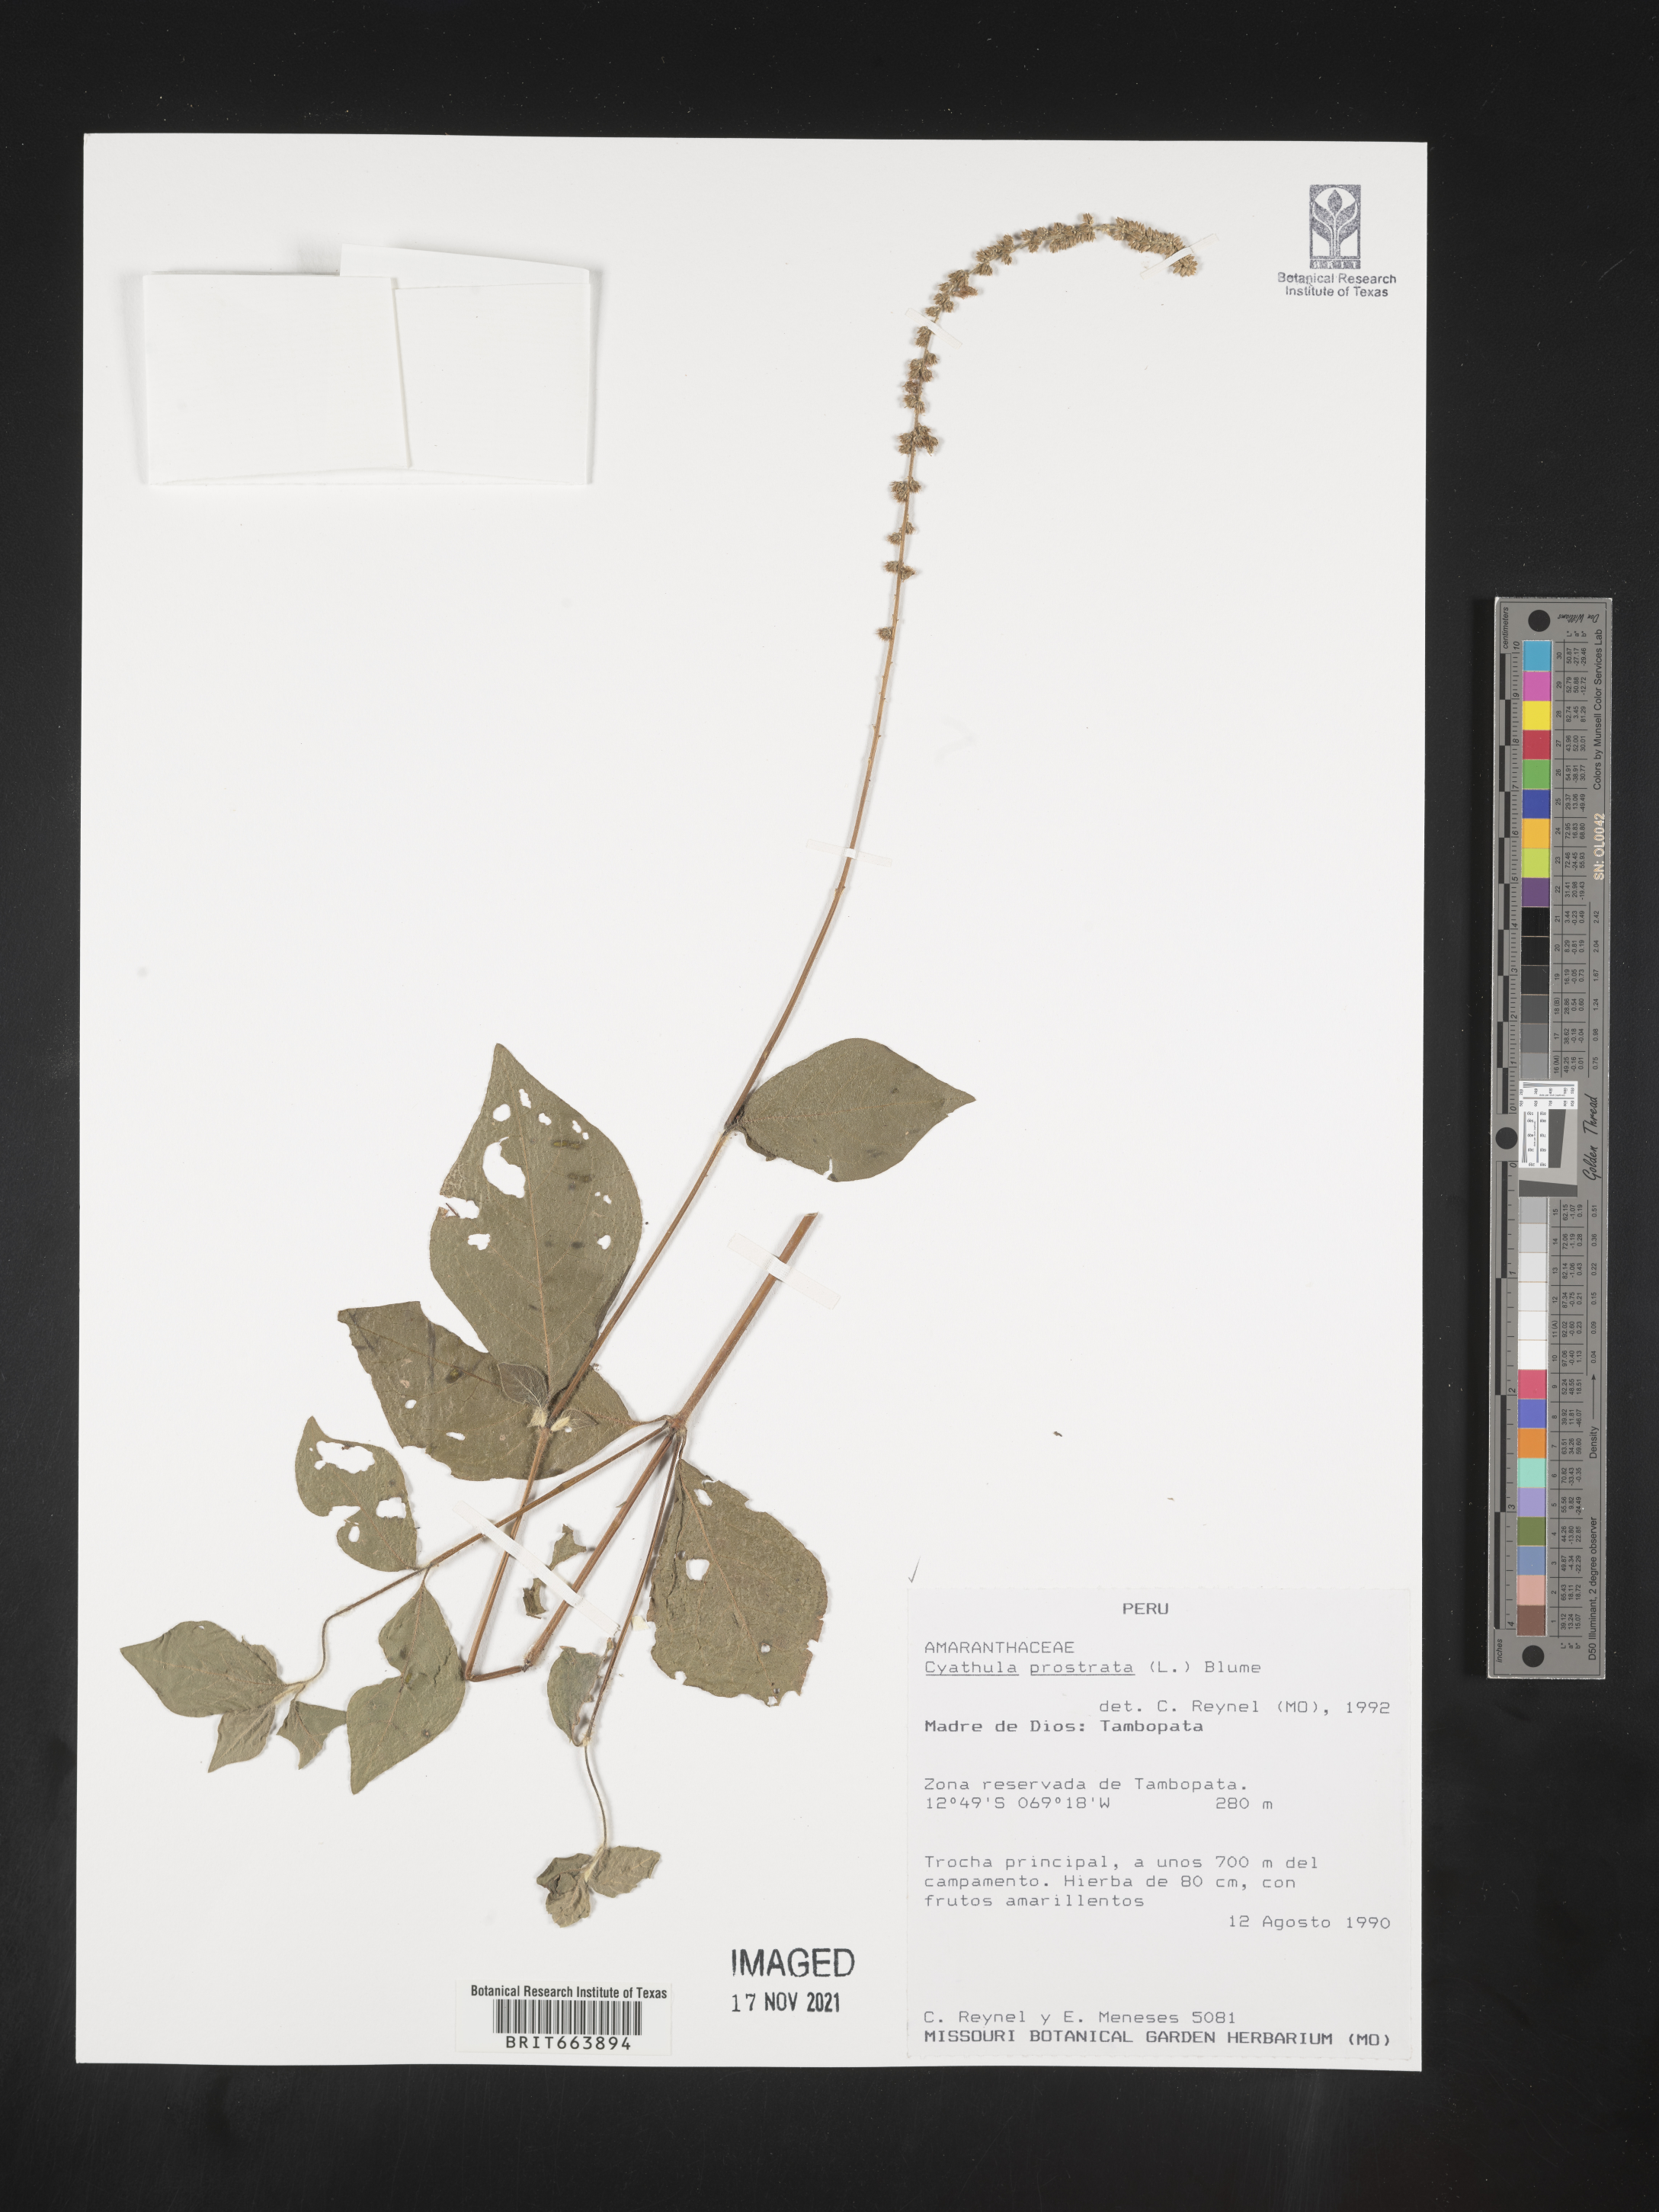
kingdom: Plantae
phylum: Tracheophyta
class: Magnoliopsida
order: Caryophyllales
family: Amaranthaceae
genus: Cyathula
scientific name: Cyathula
